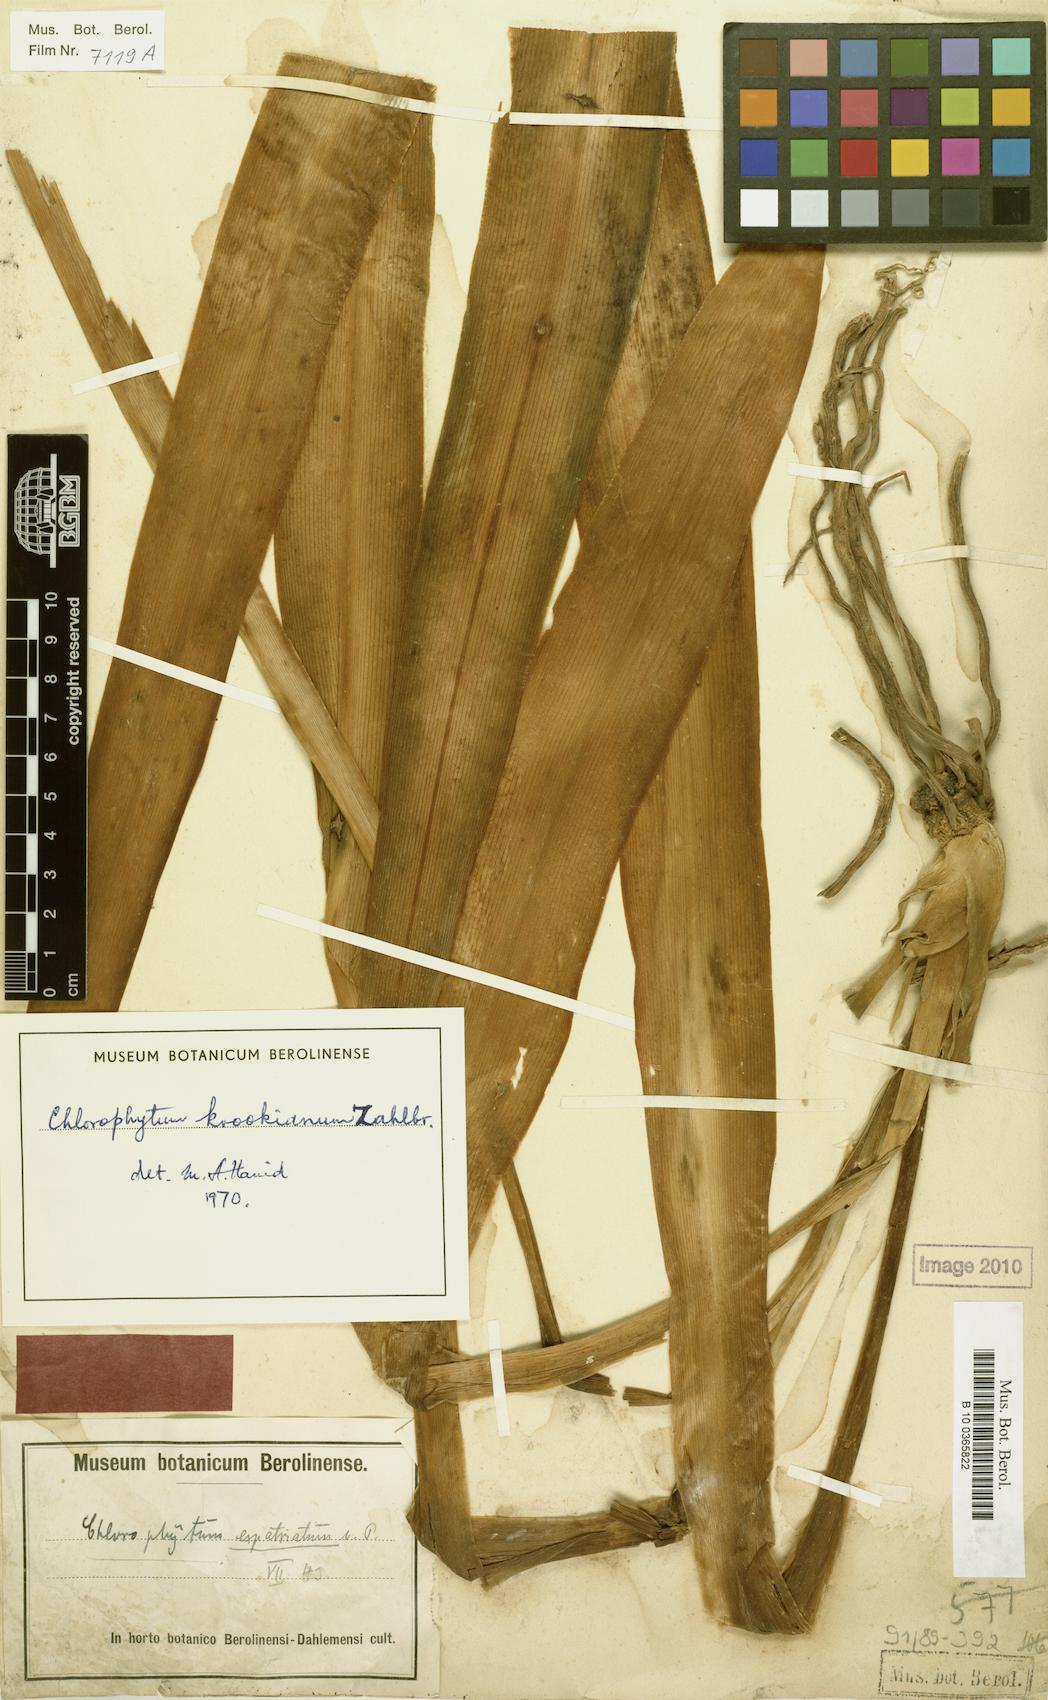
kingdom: Plantae
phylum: Tracheophyta
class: Liliopsida
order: Asparagales
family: Asparagaceae
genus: Chlorophytum
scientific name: Chlorophytum krookianum
